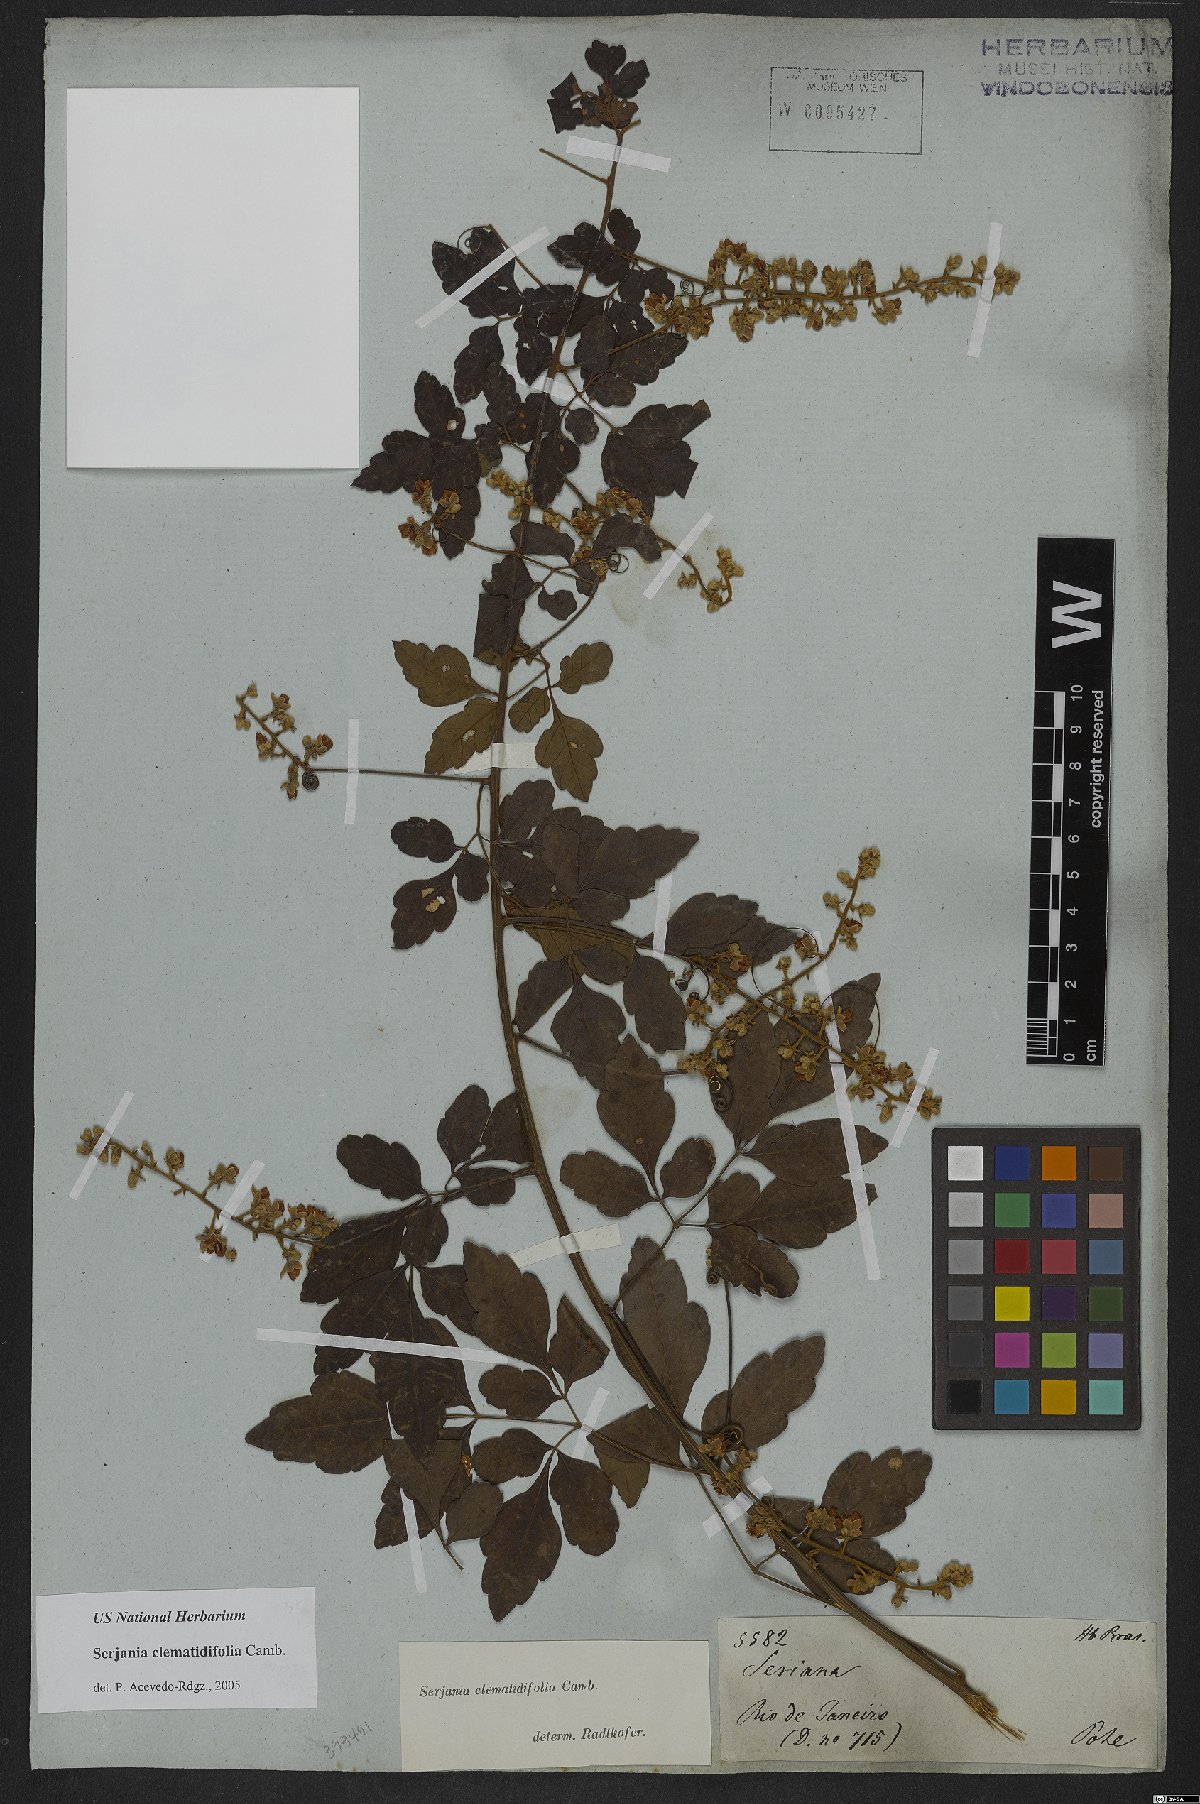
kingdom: Plantae
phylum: Tracheophyta
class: Magnoliopsida
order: Sapindales
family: Sapindaceae
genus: Serjania
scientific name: Serjania clematidifolia
